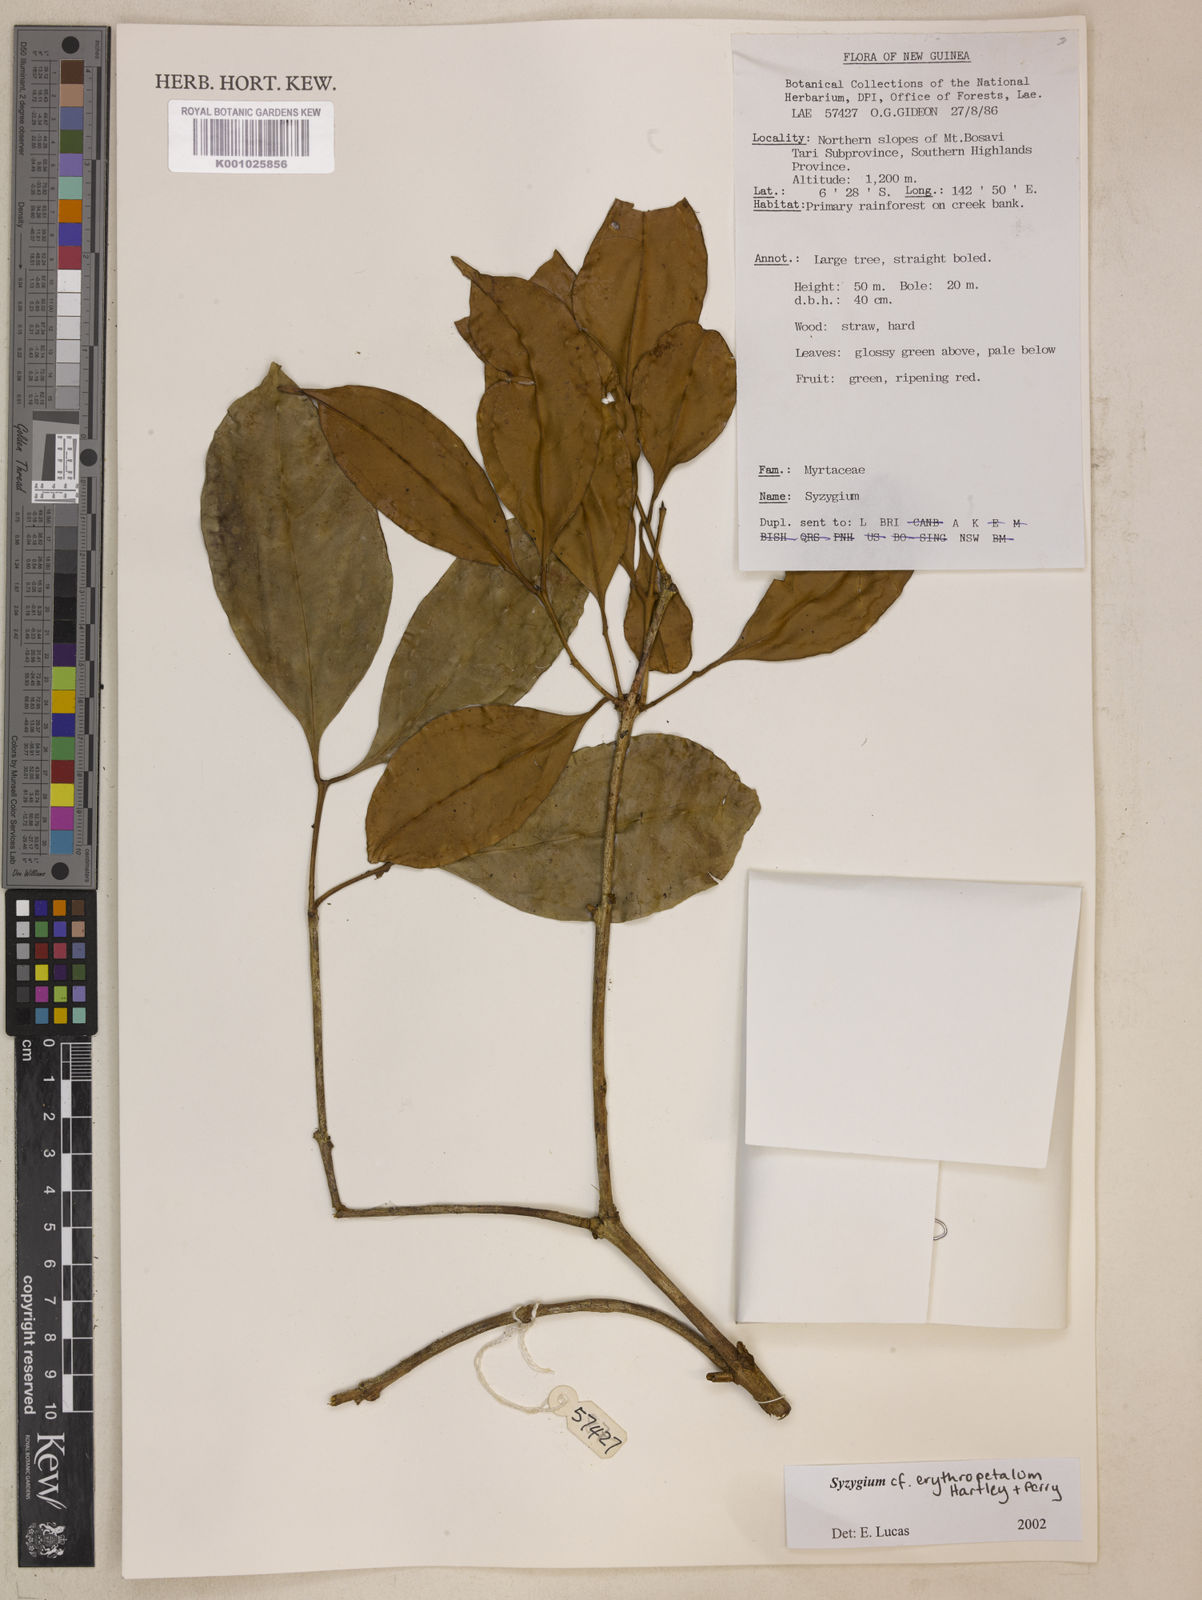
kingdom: Plantae
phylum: Tracheophyta
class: Magnoliopsida
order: Myrtales
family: Myrtaceae
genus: Syzygium
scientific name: Syzygium erythropetalum
